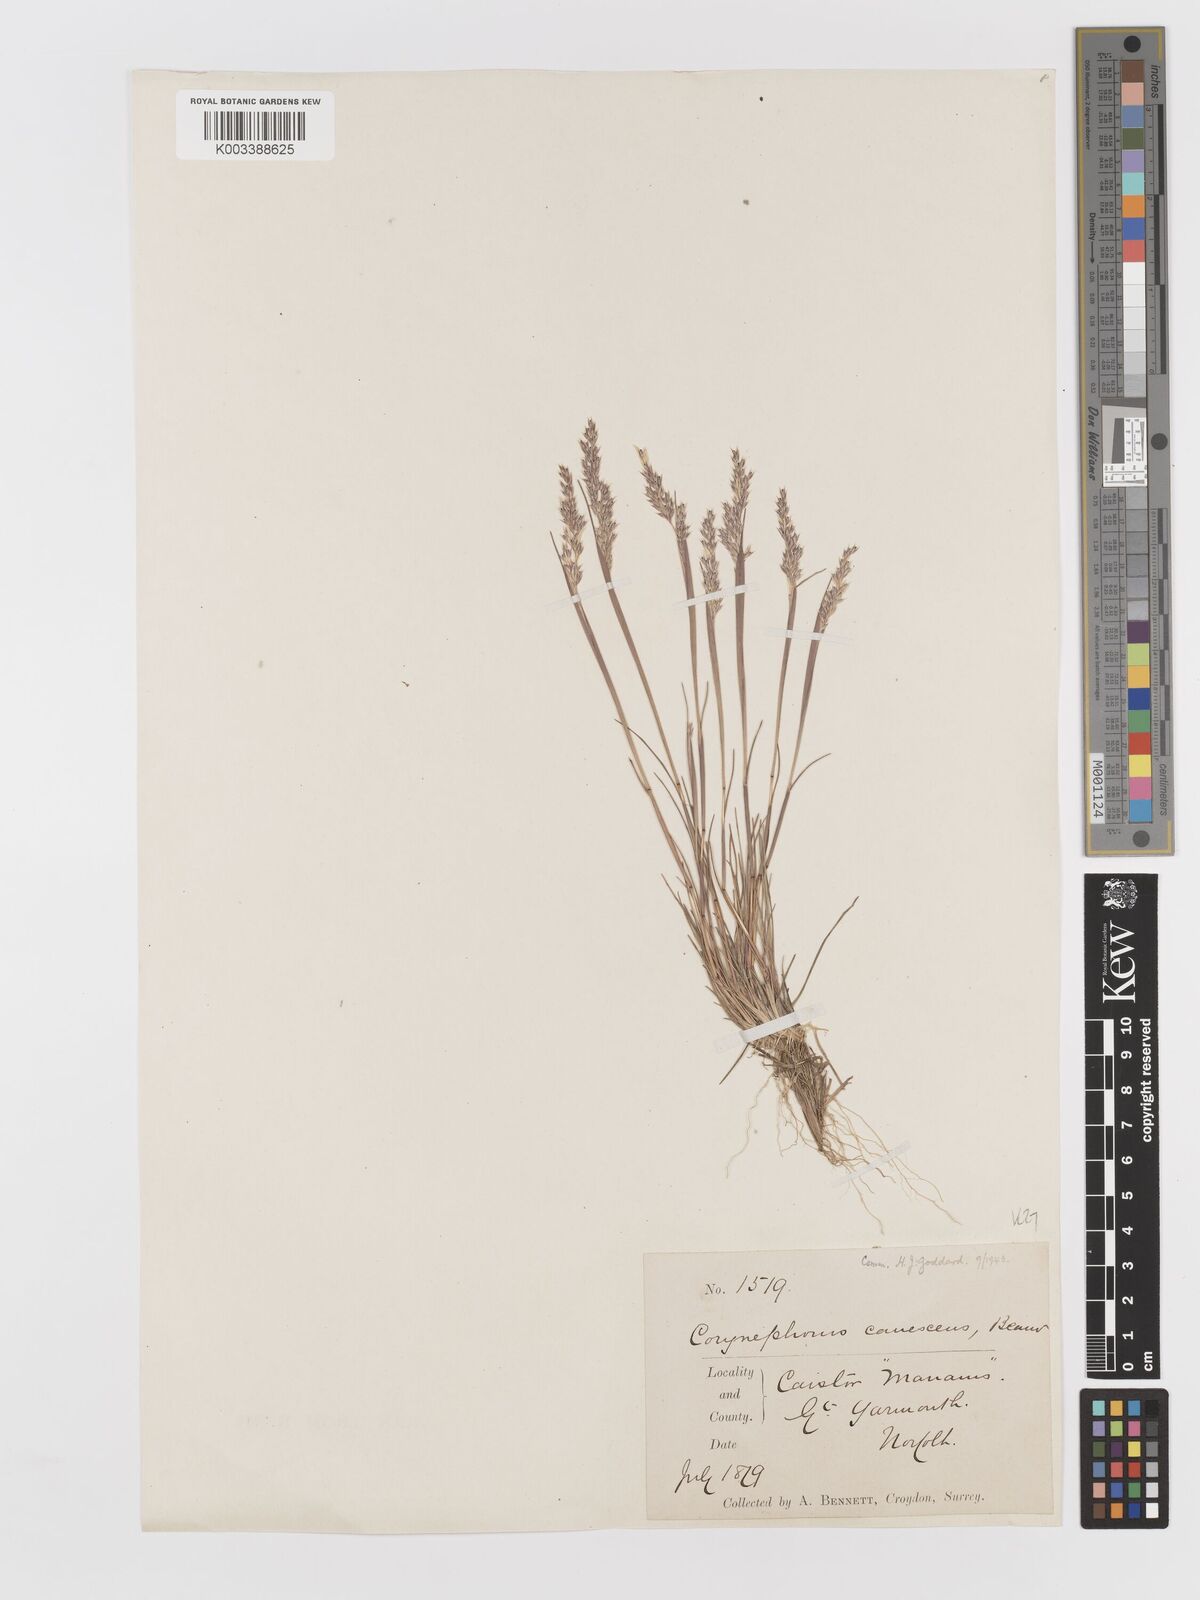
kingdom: Plantae
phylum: Tracheophyta
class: Liliopsida
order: Poales
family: Poaceae
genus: Corynephorus
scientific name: Corynephorus canescens
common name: Grey hair-grass
